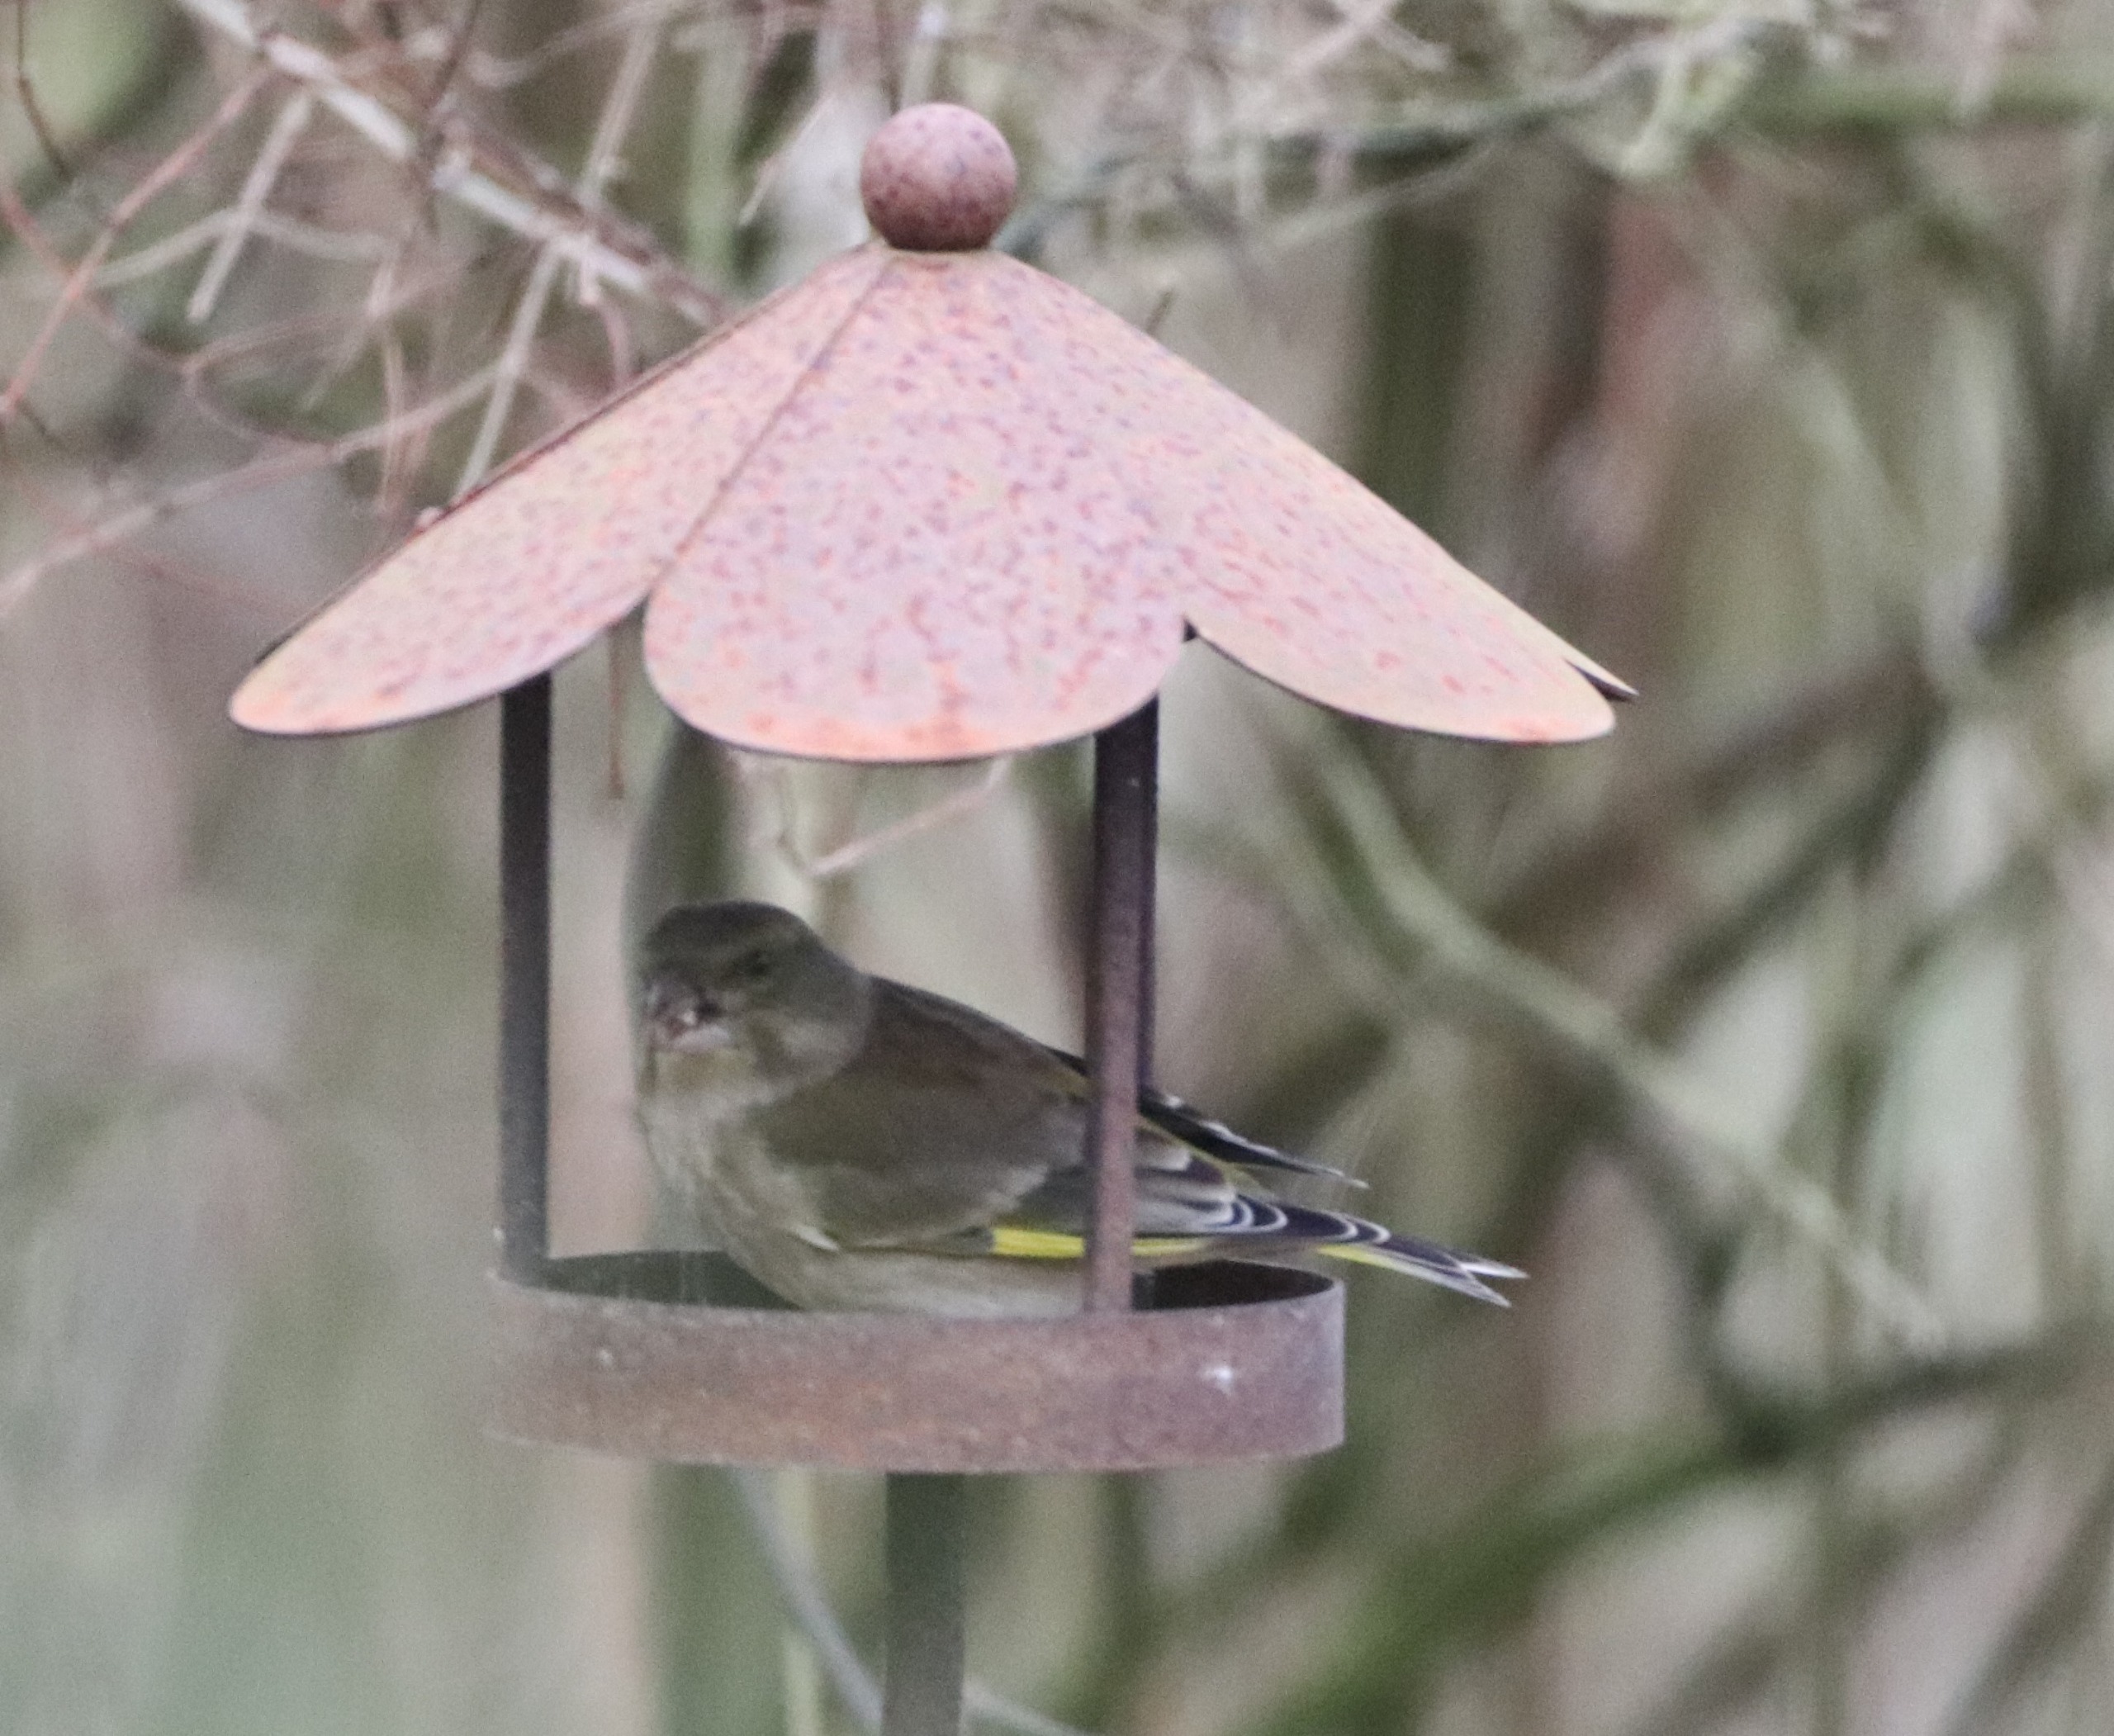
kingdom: Plantae
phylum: Tracheophyta
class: Liliopsida
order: Poales
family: Poaceae
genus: Chloris
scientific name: Chloris chloris
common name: Grønirisk
